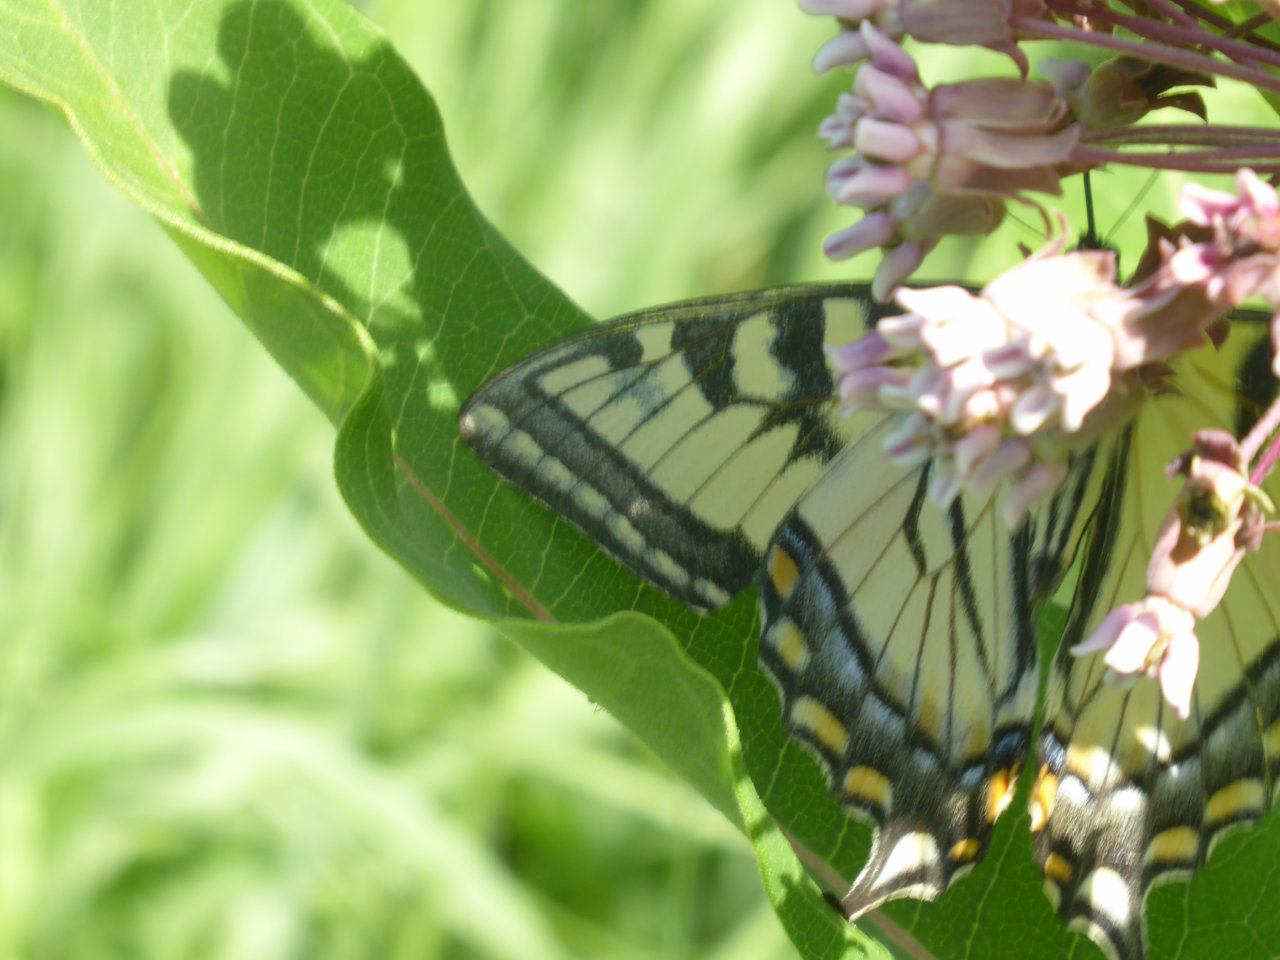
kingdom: Animalia
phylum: Arthropoda
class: Insecta
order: Lepidoptera
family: Papilionidae
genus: Pterourus
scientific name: Pterourus glaucus
